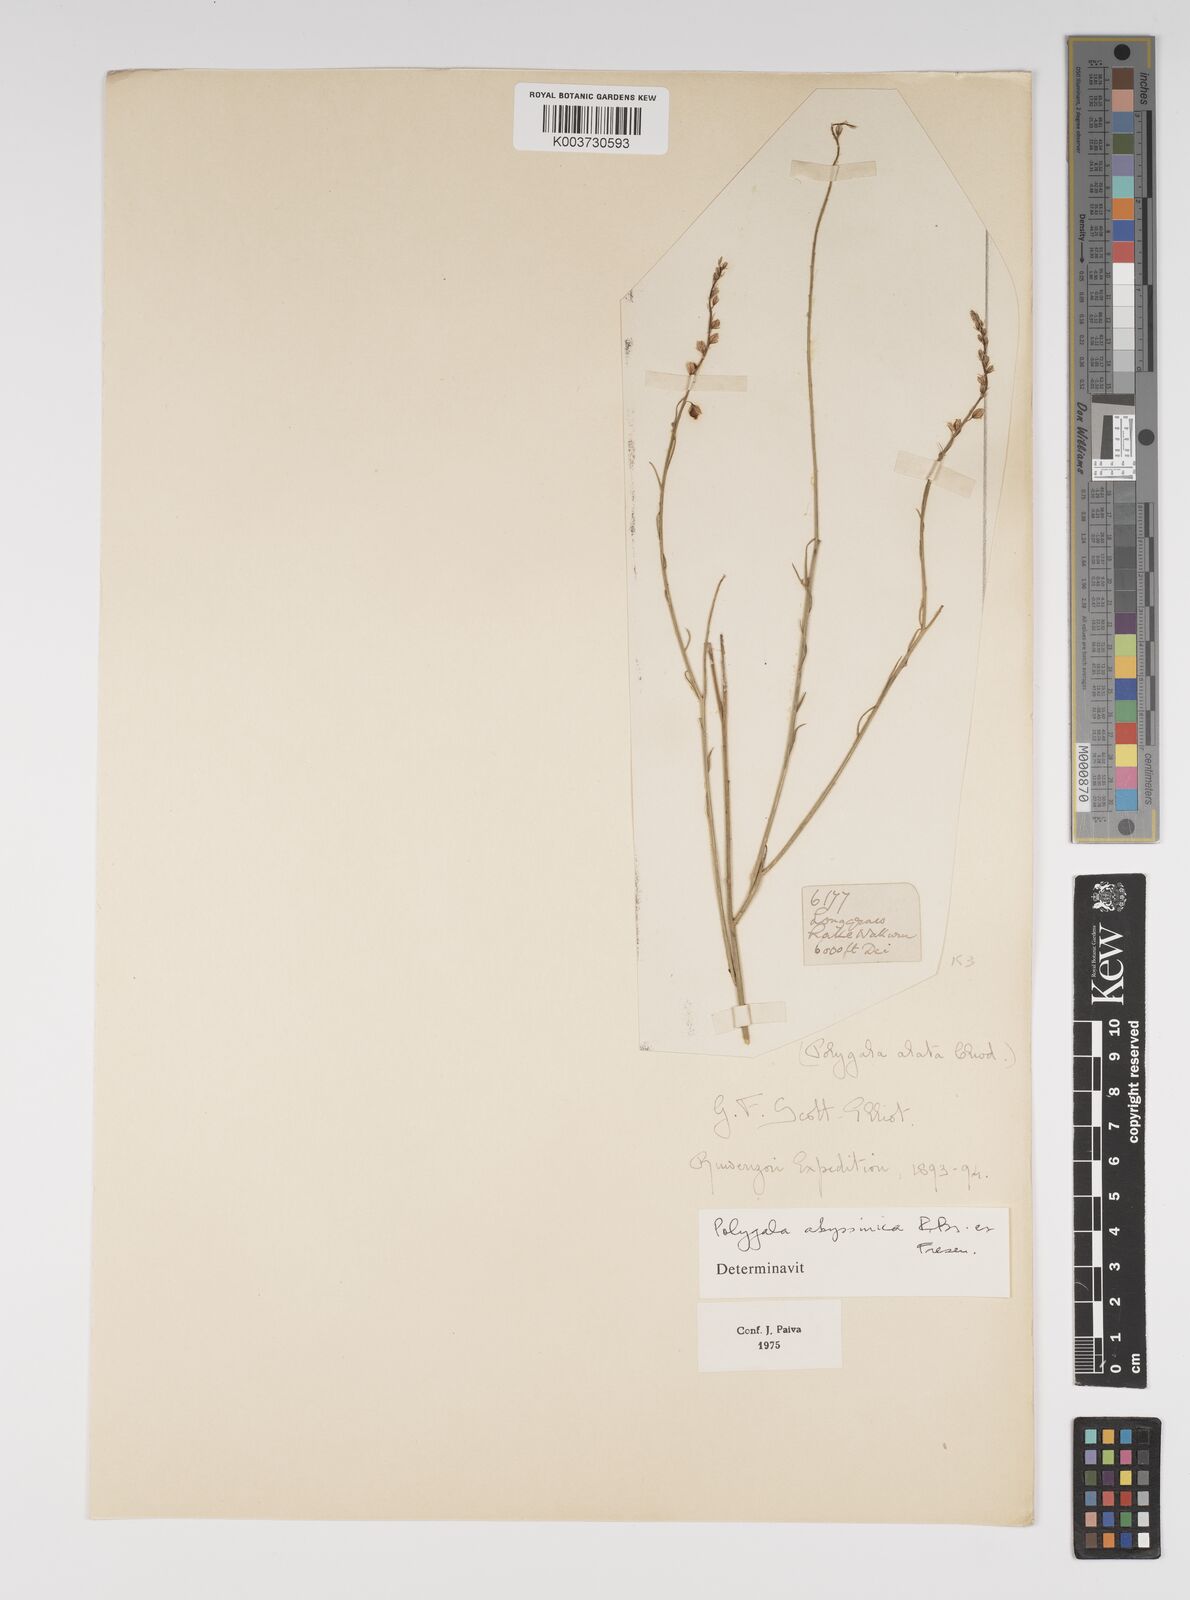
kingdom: Plantae
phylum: Tracheophyta
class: Magnoliopsida
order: Fabales
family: Polygalaceae
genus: Polygala
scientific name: Polygala abyssinica
